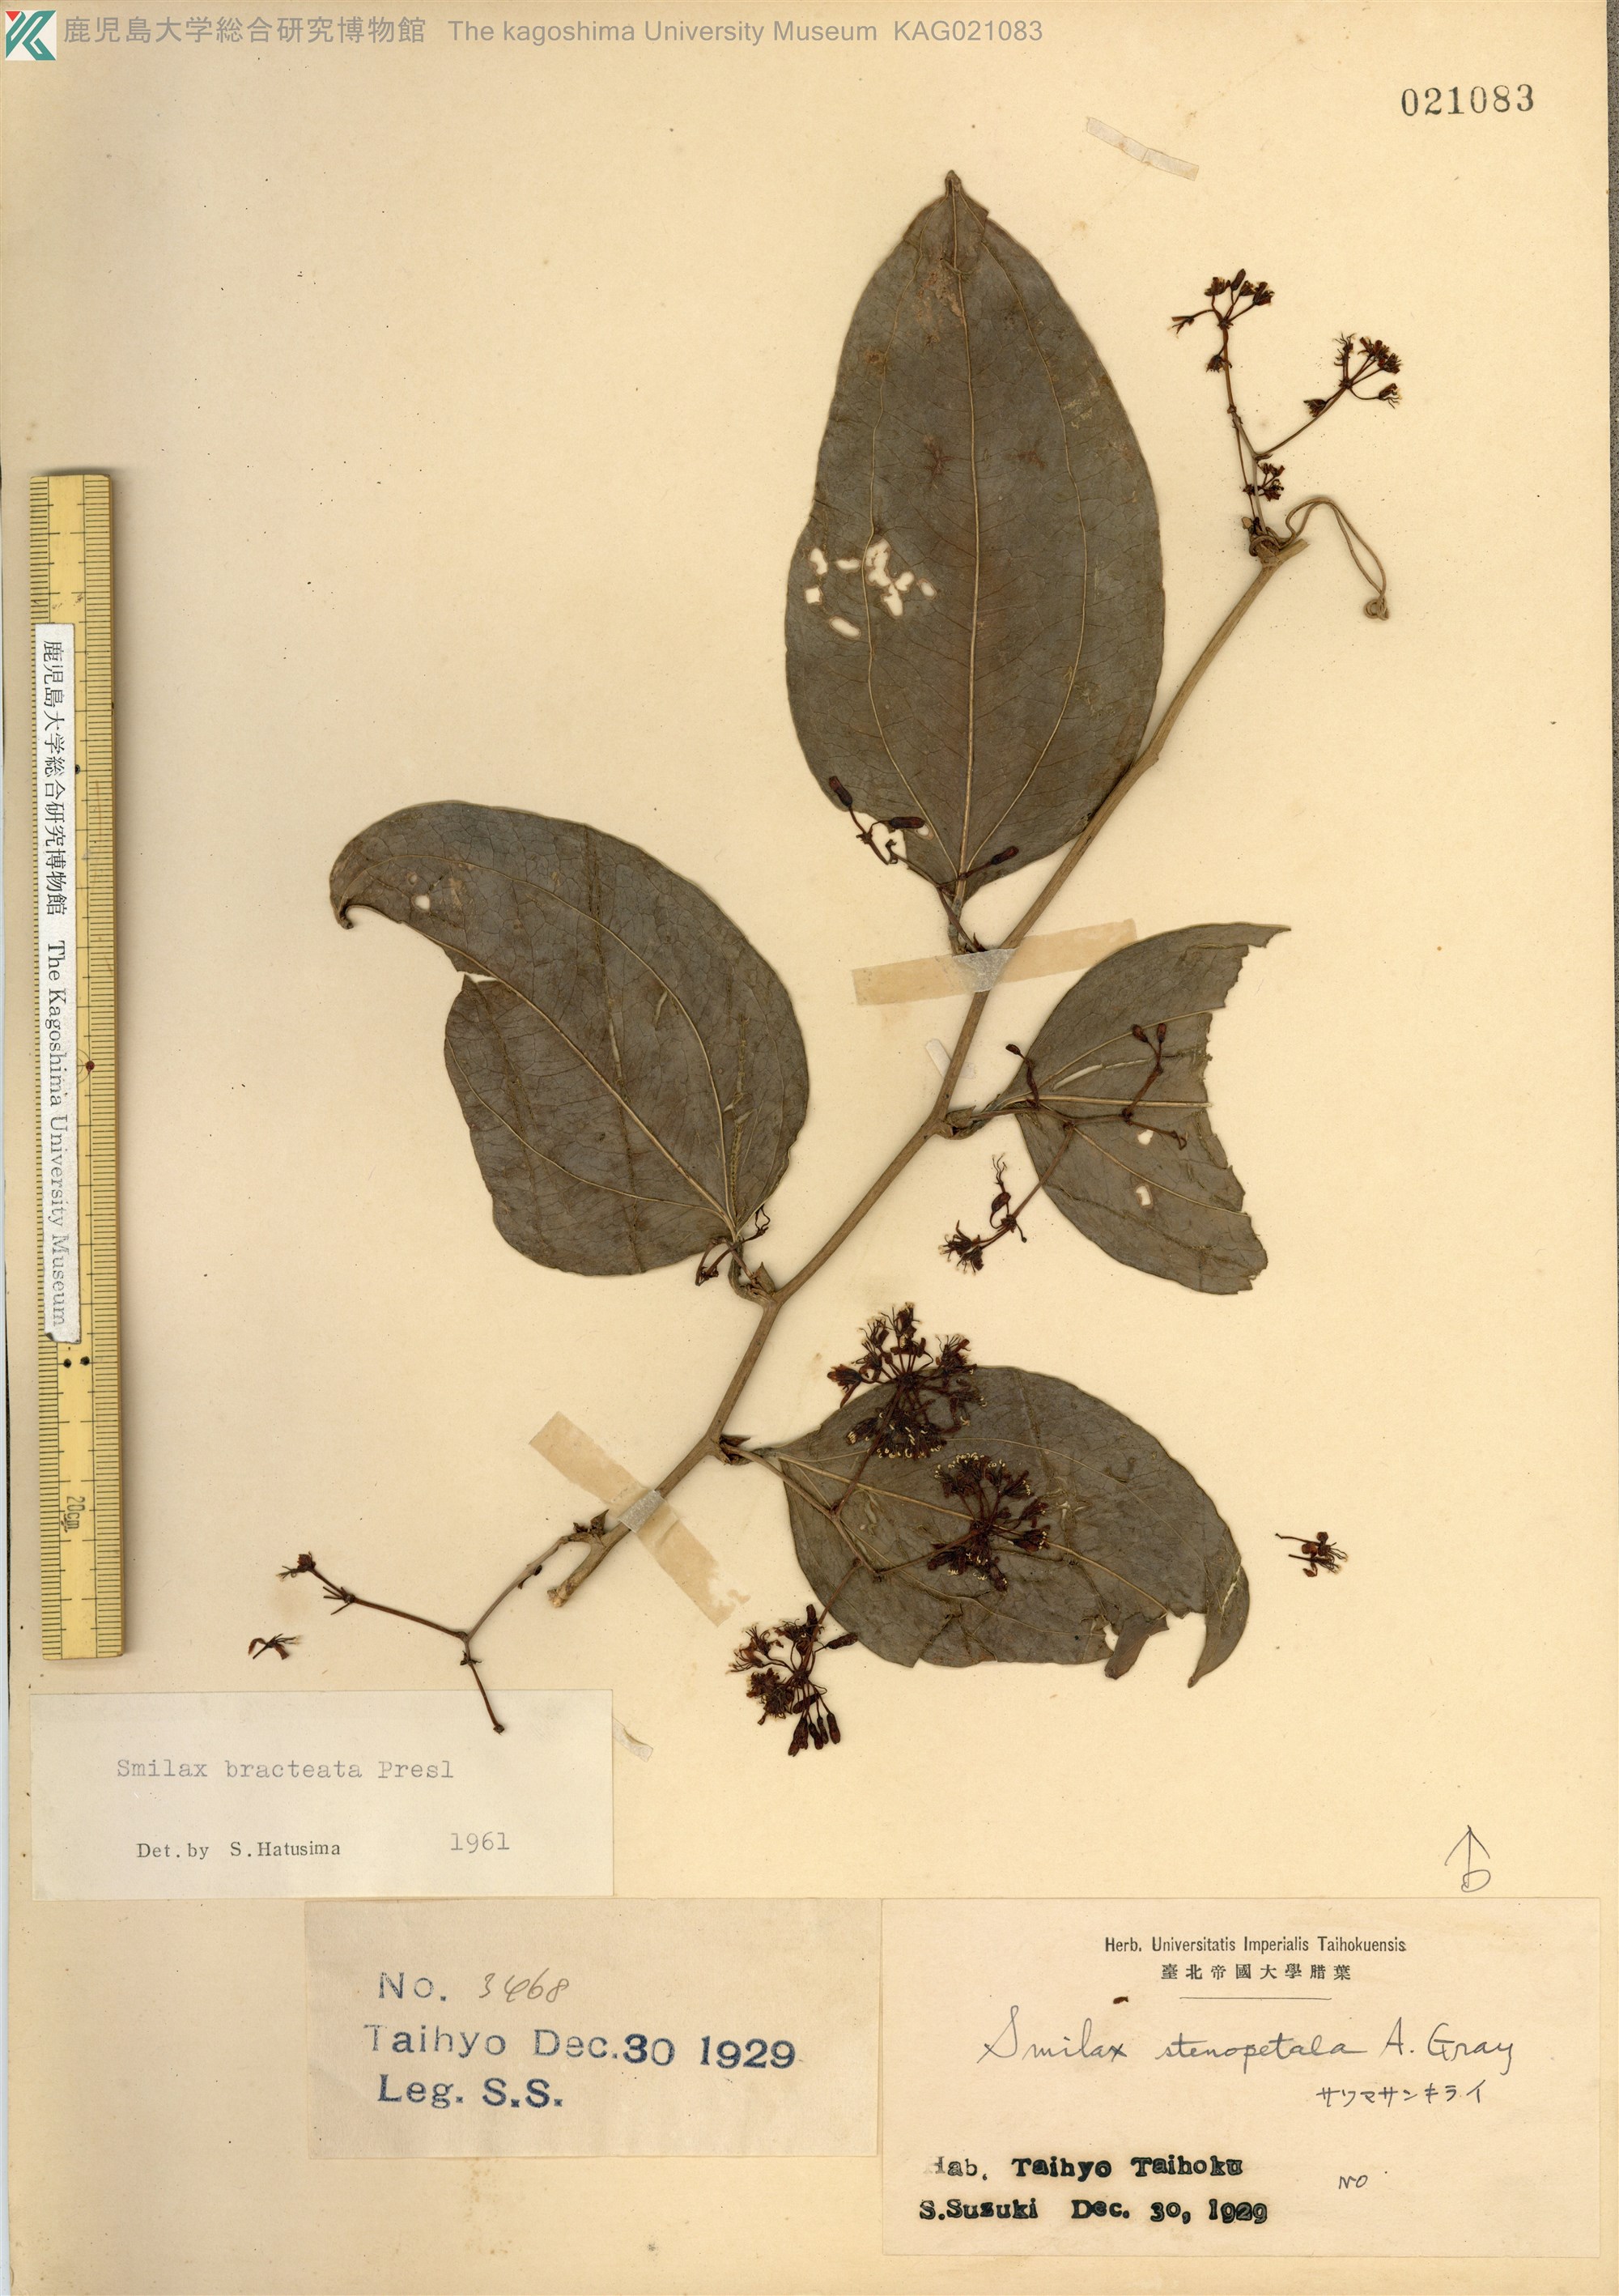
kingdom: Plantae
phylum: Tracheophyta
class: Liliopsida
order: Liliales
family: Smilacaceae
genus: Smilax
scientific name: Smilax bracteata
